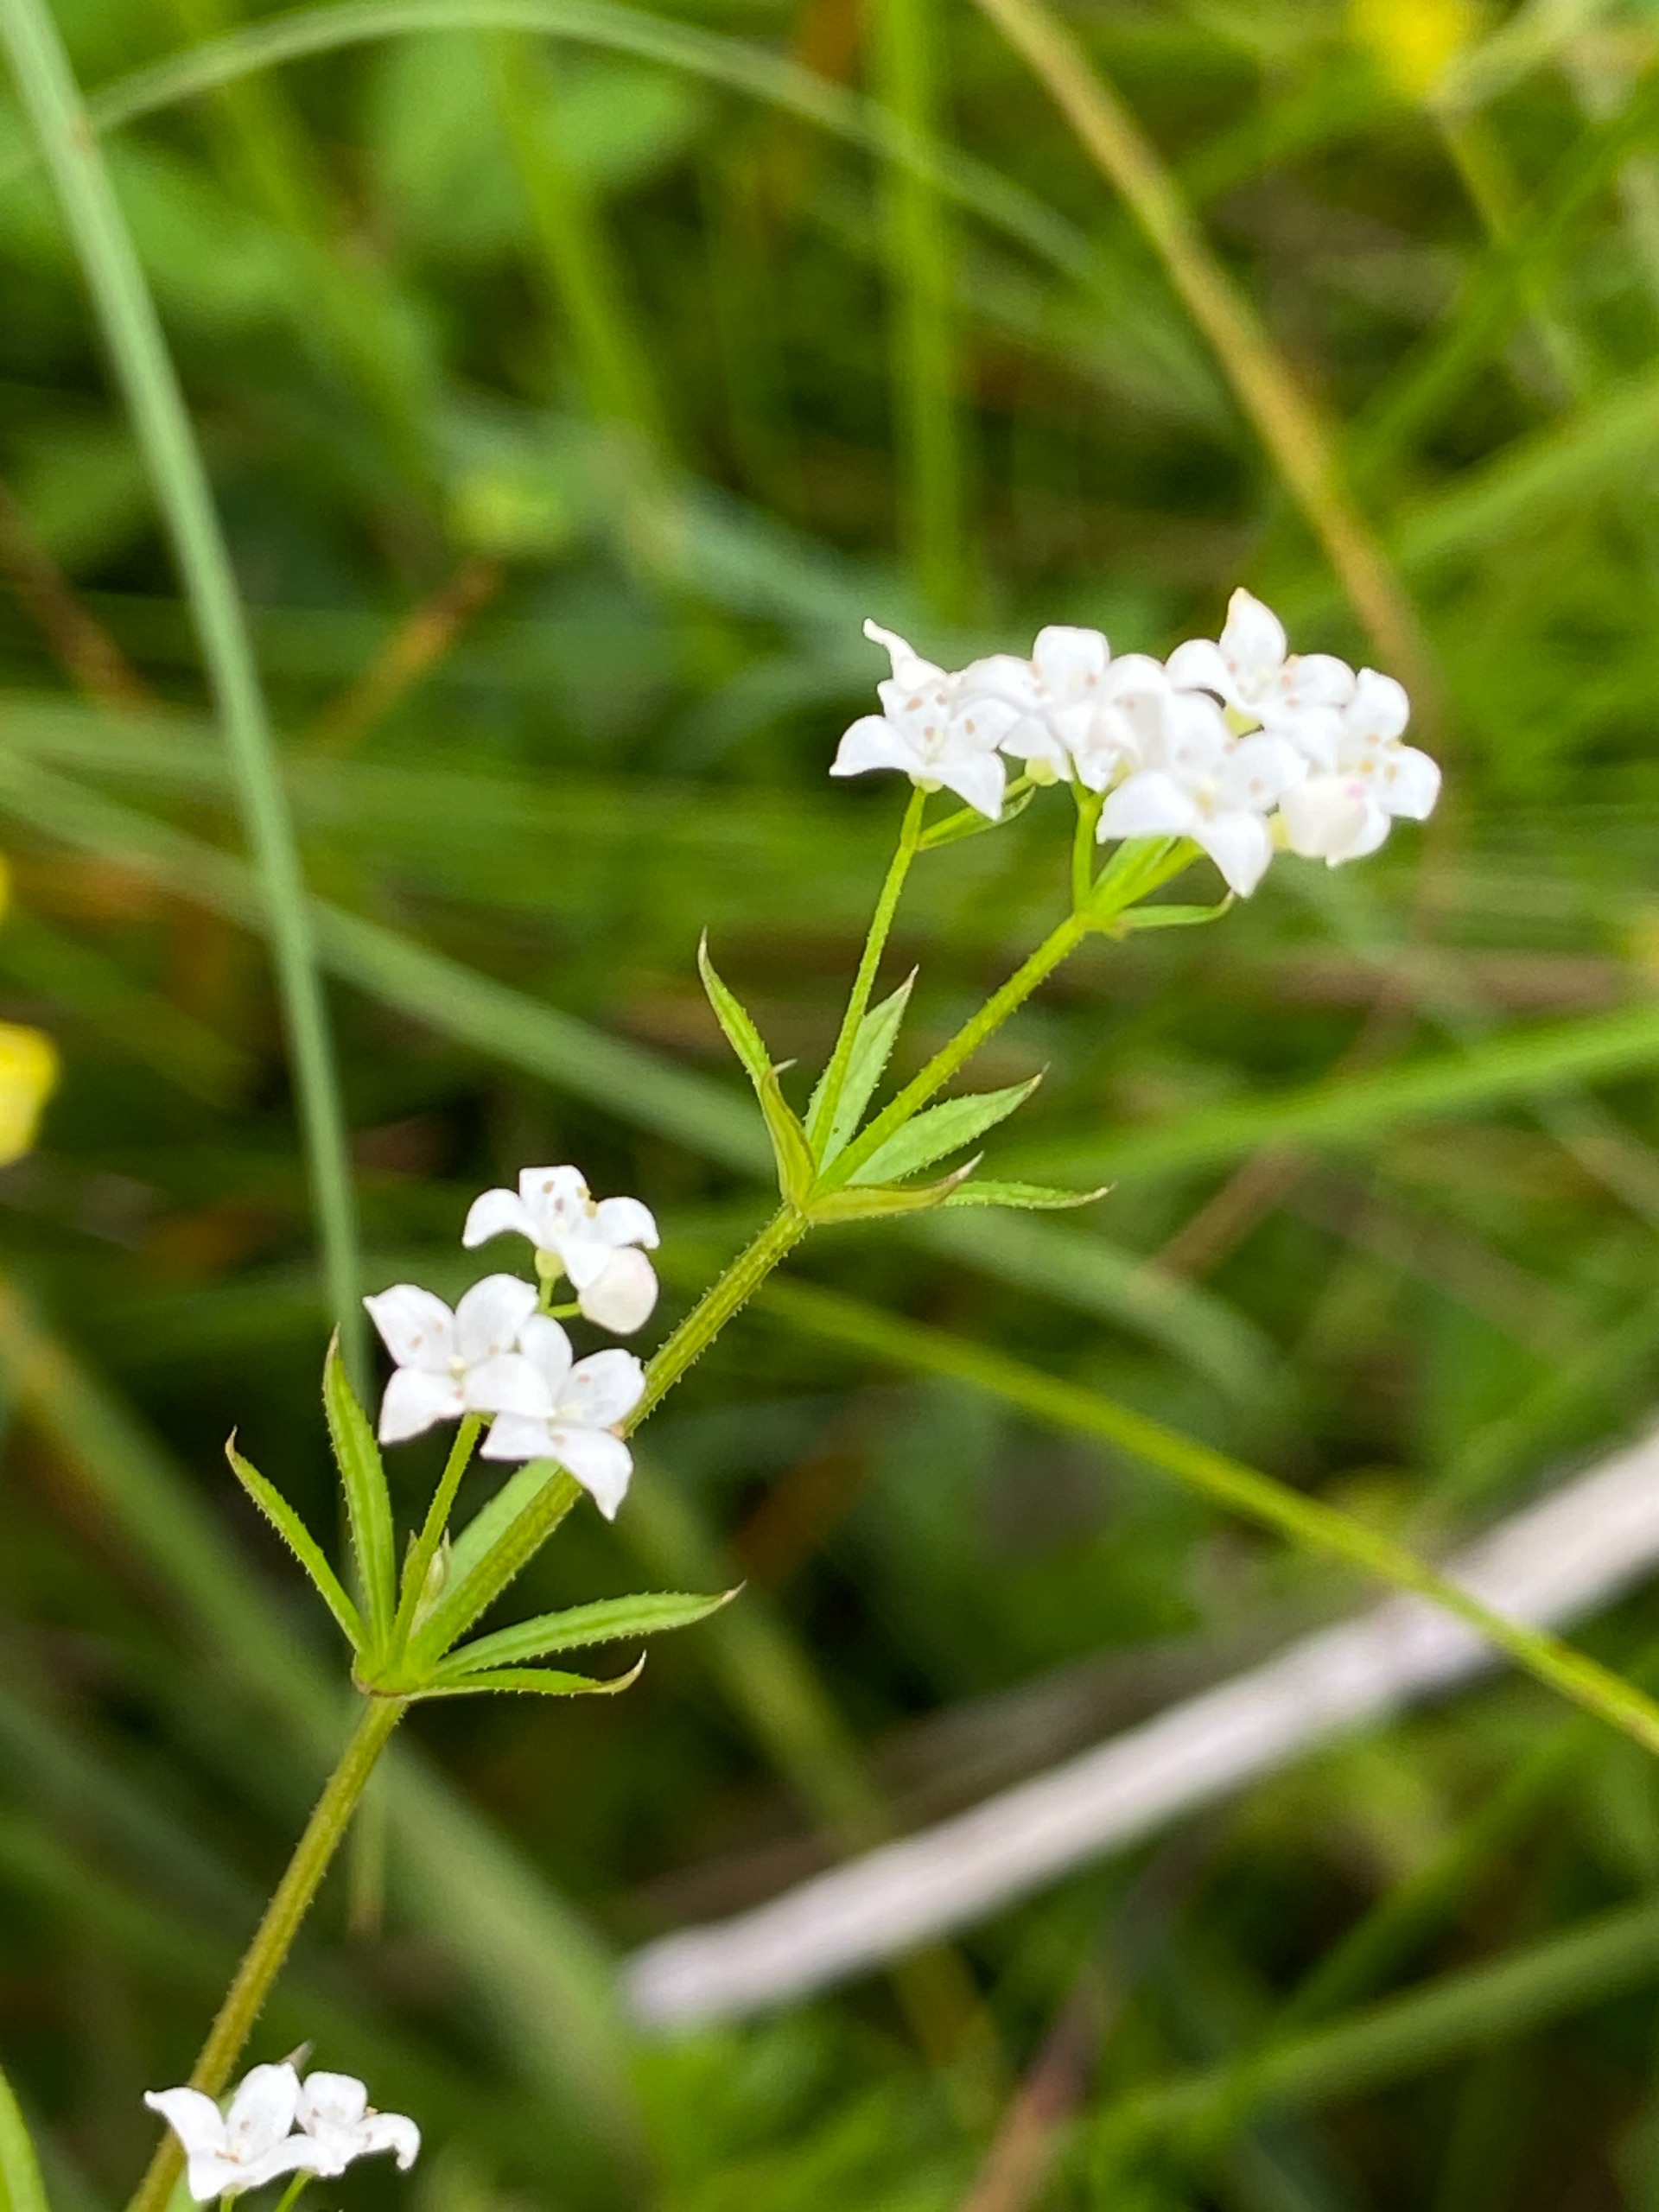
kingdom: Plantae
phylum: Tracheophyta
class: Magnoliopsida
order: Gentianales
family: Rubiaceae
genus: Galium
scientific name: Galium uliginosum
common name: Sump-snerre
